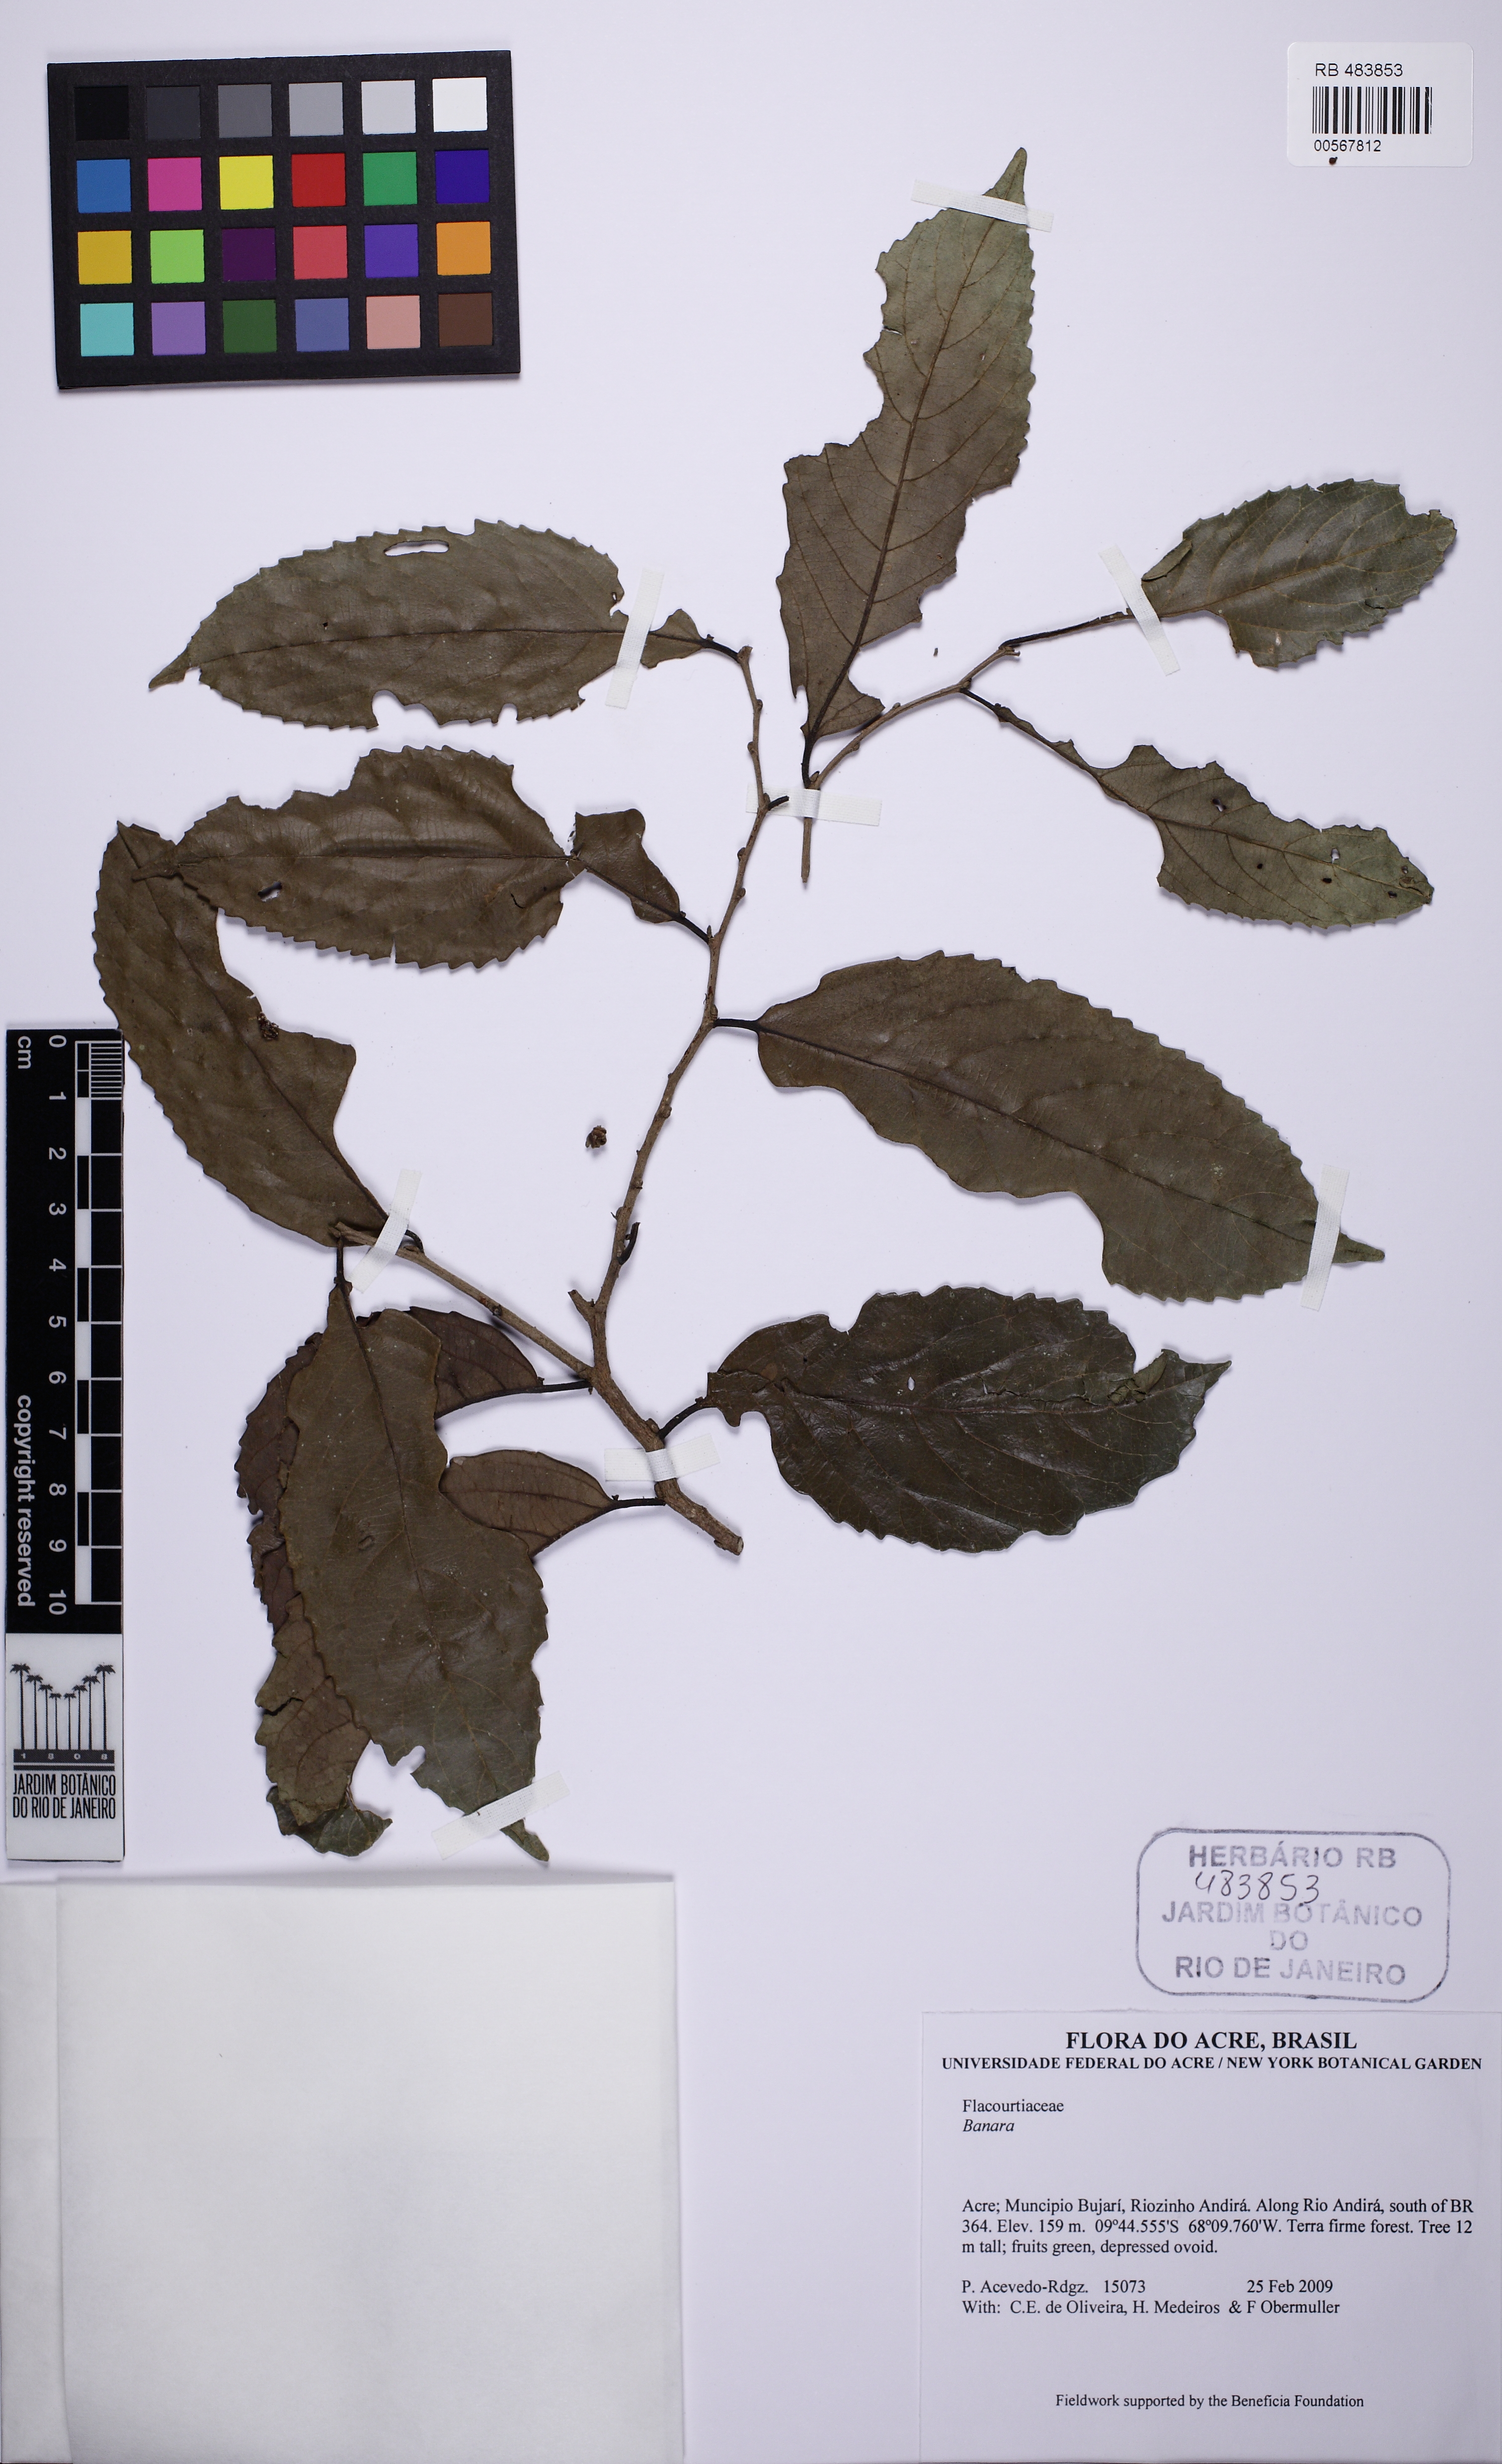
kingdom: Plantae
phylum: Tracheophyta
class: Magnoliopsida
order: Malpighiales
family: Salicaceae
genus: Banara
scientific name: Banara
